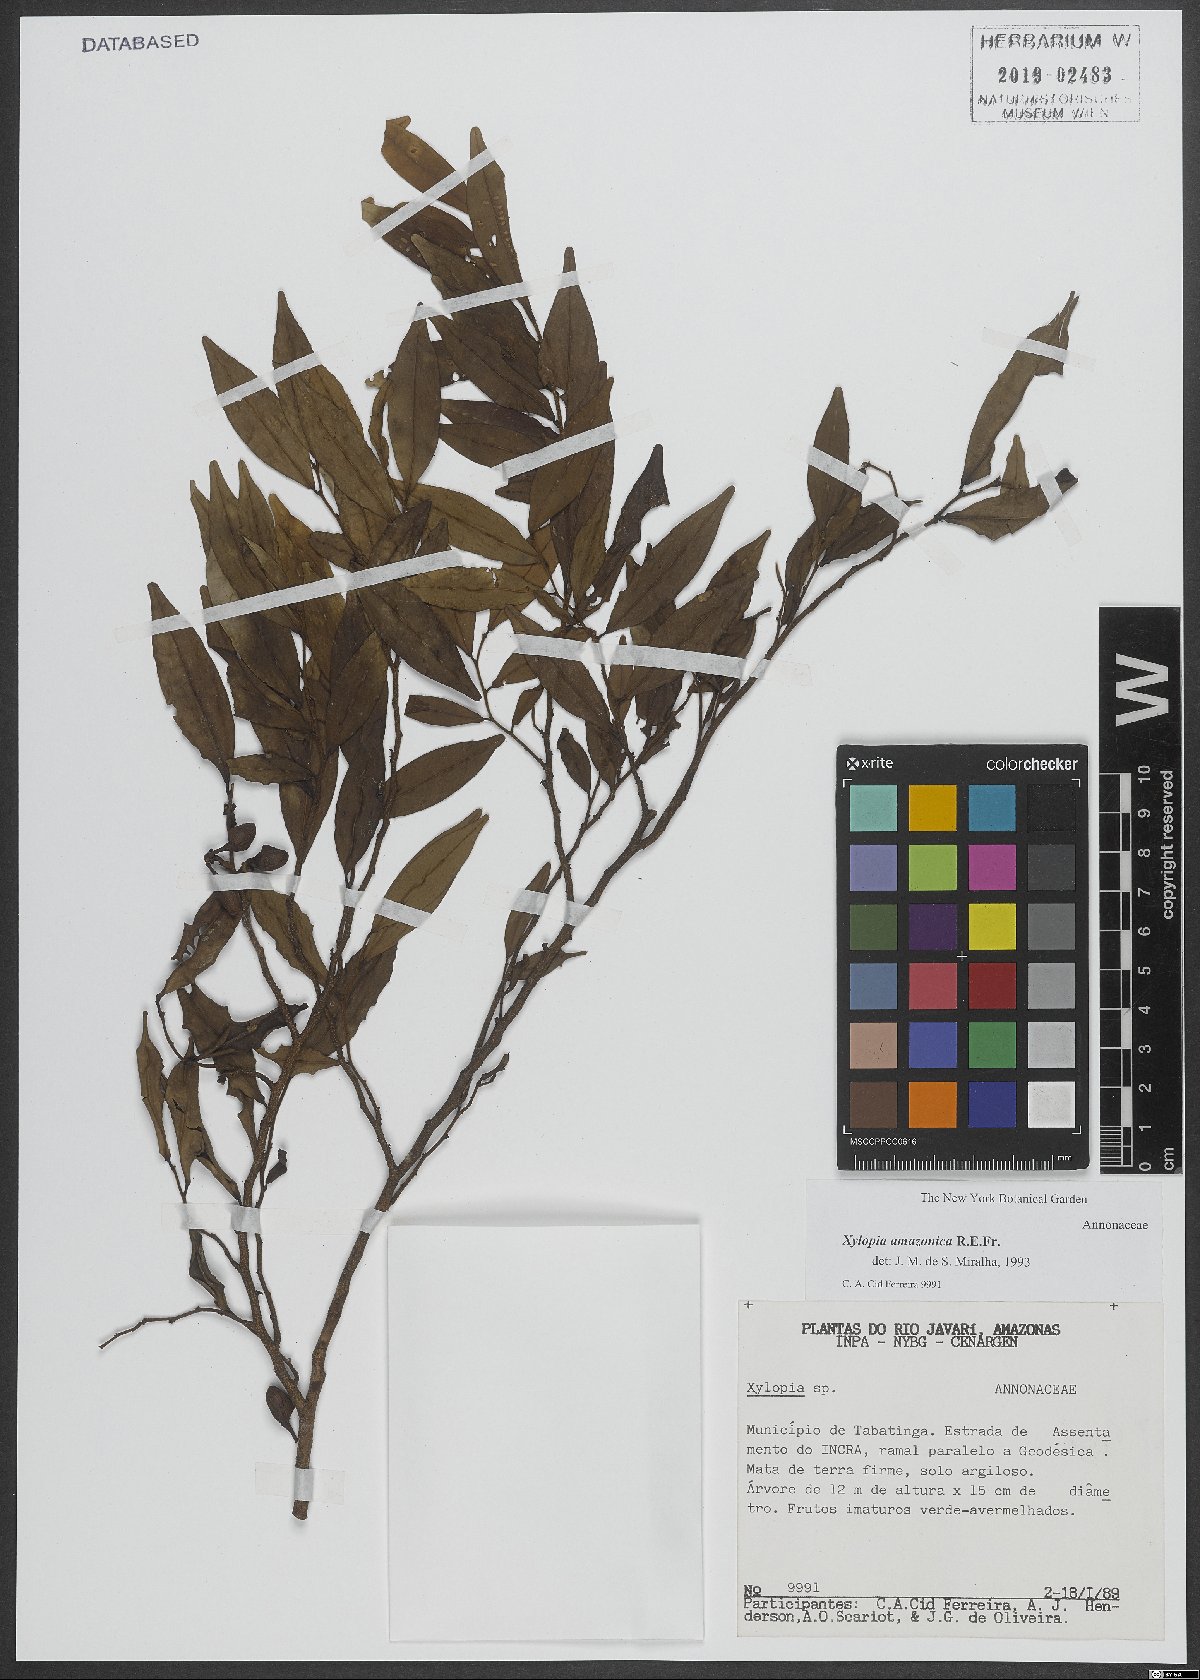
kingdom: Plantae
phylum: Tracheophyta
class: Magnoliopsida
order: Magnoliales
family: Annonaceae
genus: Xylopia
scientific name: Xylopia amazonica
